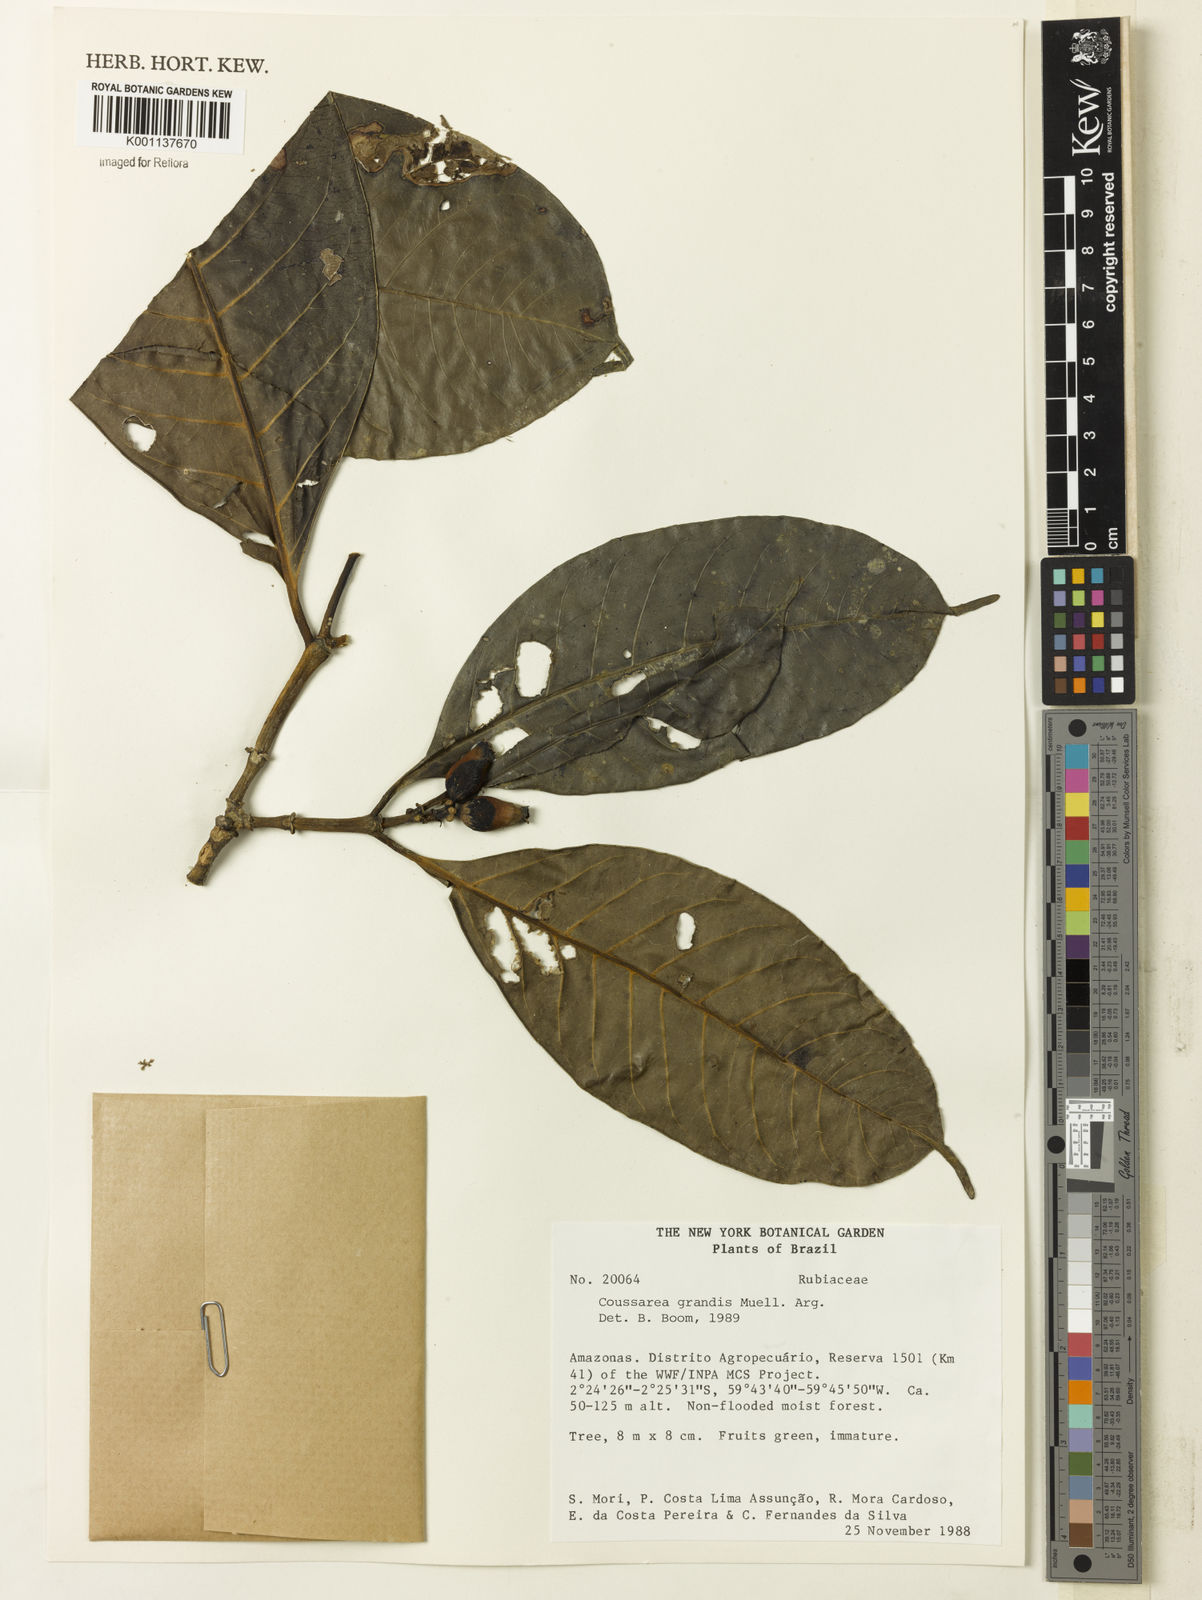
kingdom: Plantae
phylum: Tracheophyta
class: Magnoliopsida
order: Gentianales
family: Rubiaceae
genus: Coussarea
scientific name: Coussarea
